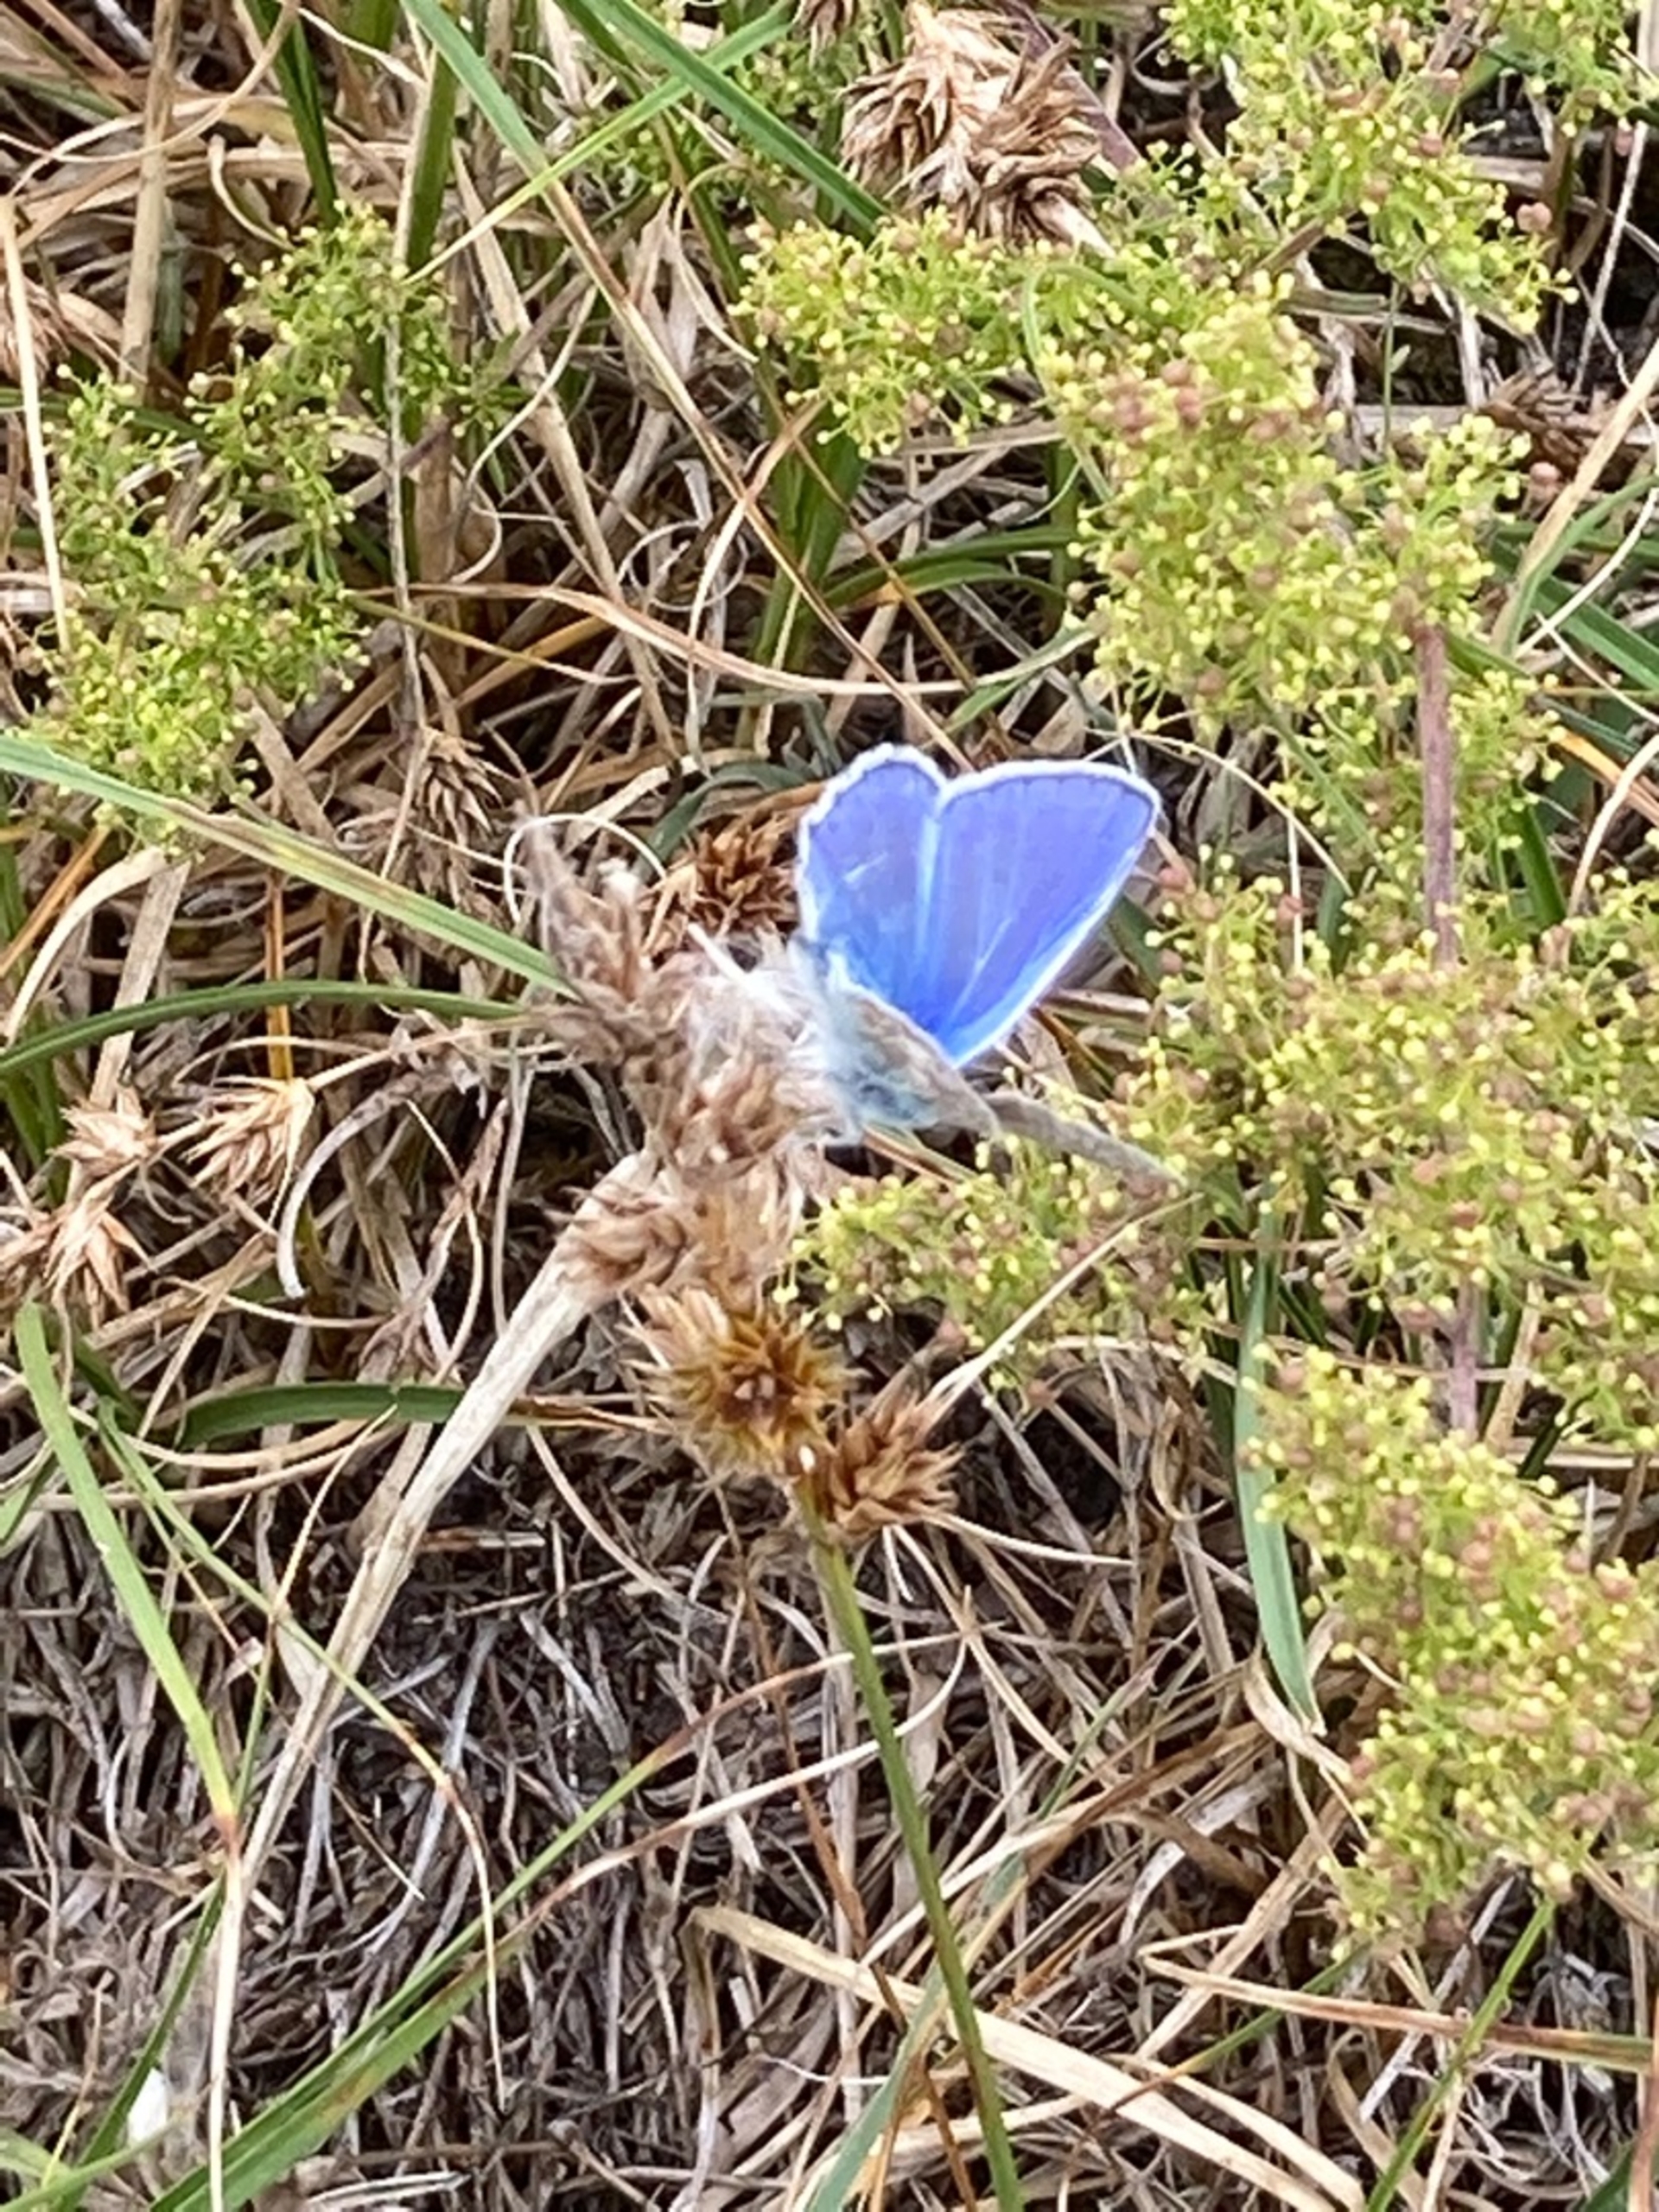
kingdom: Animalia
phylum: Arthropoda
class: Insecta
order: Lepidoptera
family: Lycaenidae
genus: Polyommatus
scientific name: Polyommatus icarus
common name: Almindelig blåfugl
